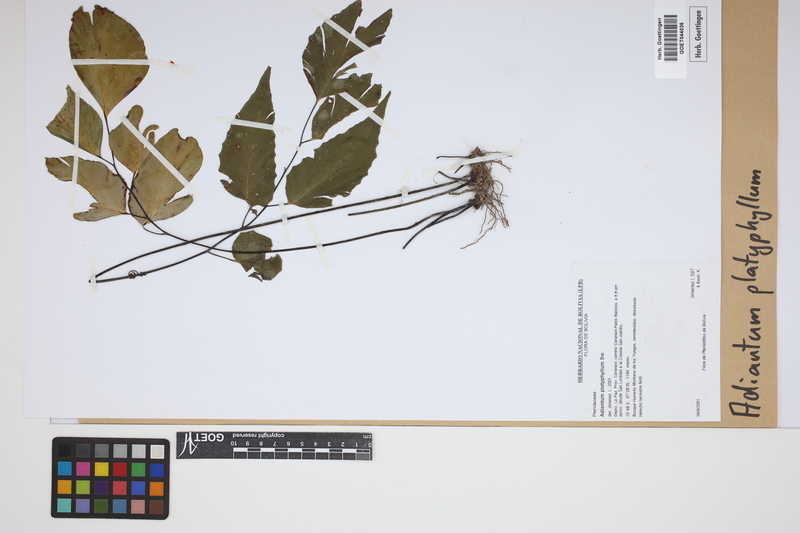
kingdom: Plantae
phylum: Tracheophyta
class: Polypodiopsida
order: Polypodiales
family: Pteridaceae
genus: Adiantum
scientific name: Adiantum platyphyllum
